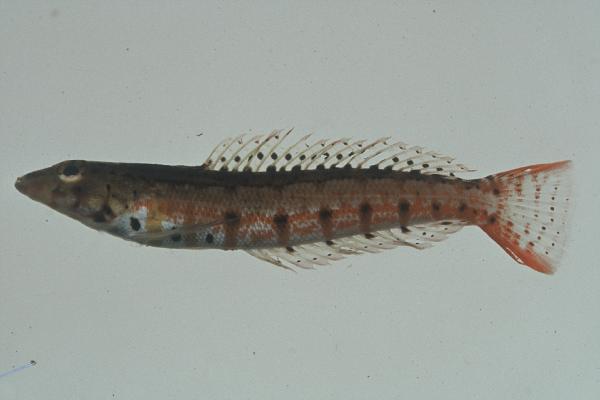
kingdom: Animalia
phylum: Chordata
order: Perciformes
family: Pinguipedidae
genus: Parapercis
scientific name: Parapercis punctulata
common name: Spotted sandperch
